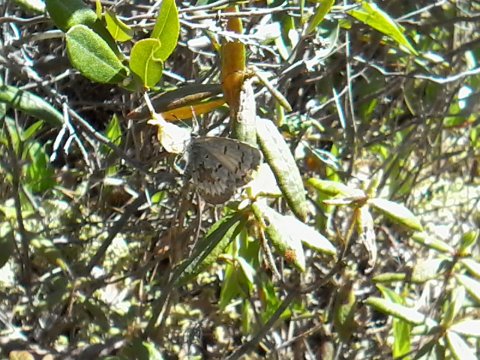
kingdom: Animalia
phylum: Arthropoda
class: Insecta
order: Lepidoptera
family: Lycaenidae
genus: Celastrina
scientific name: Celastrina lucia
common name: Northern Spring Azure
